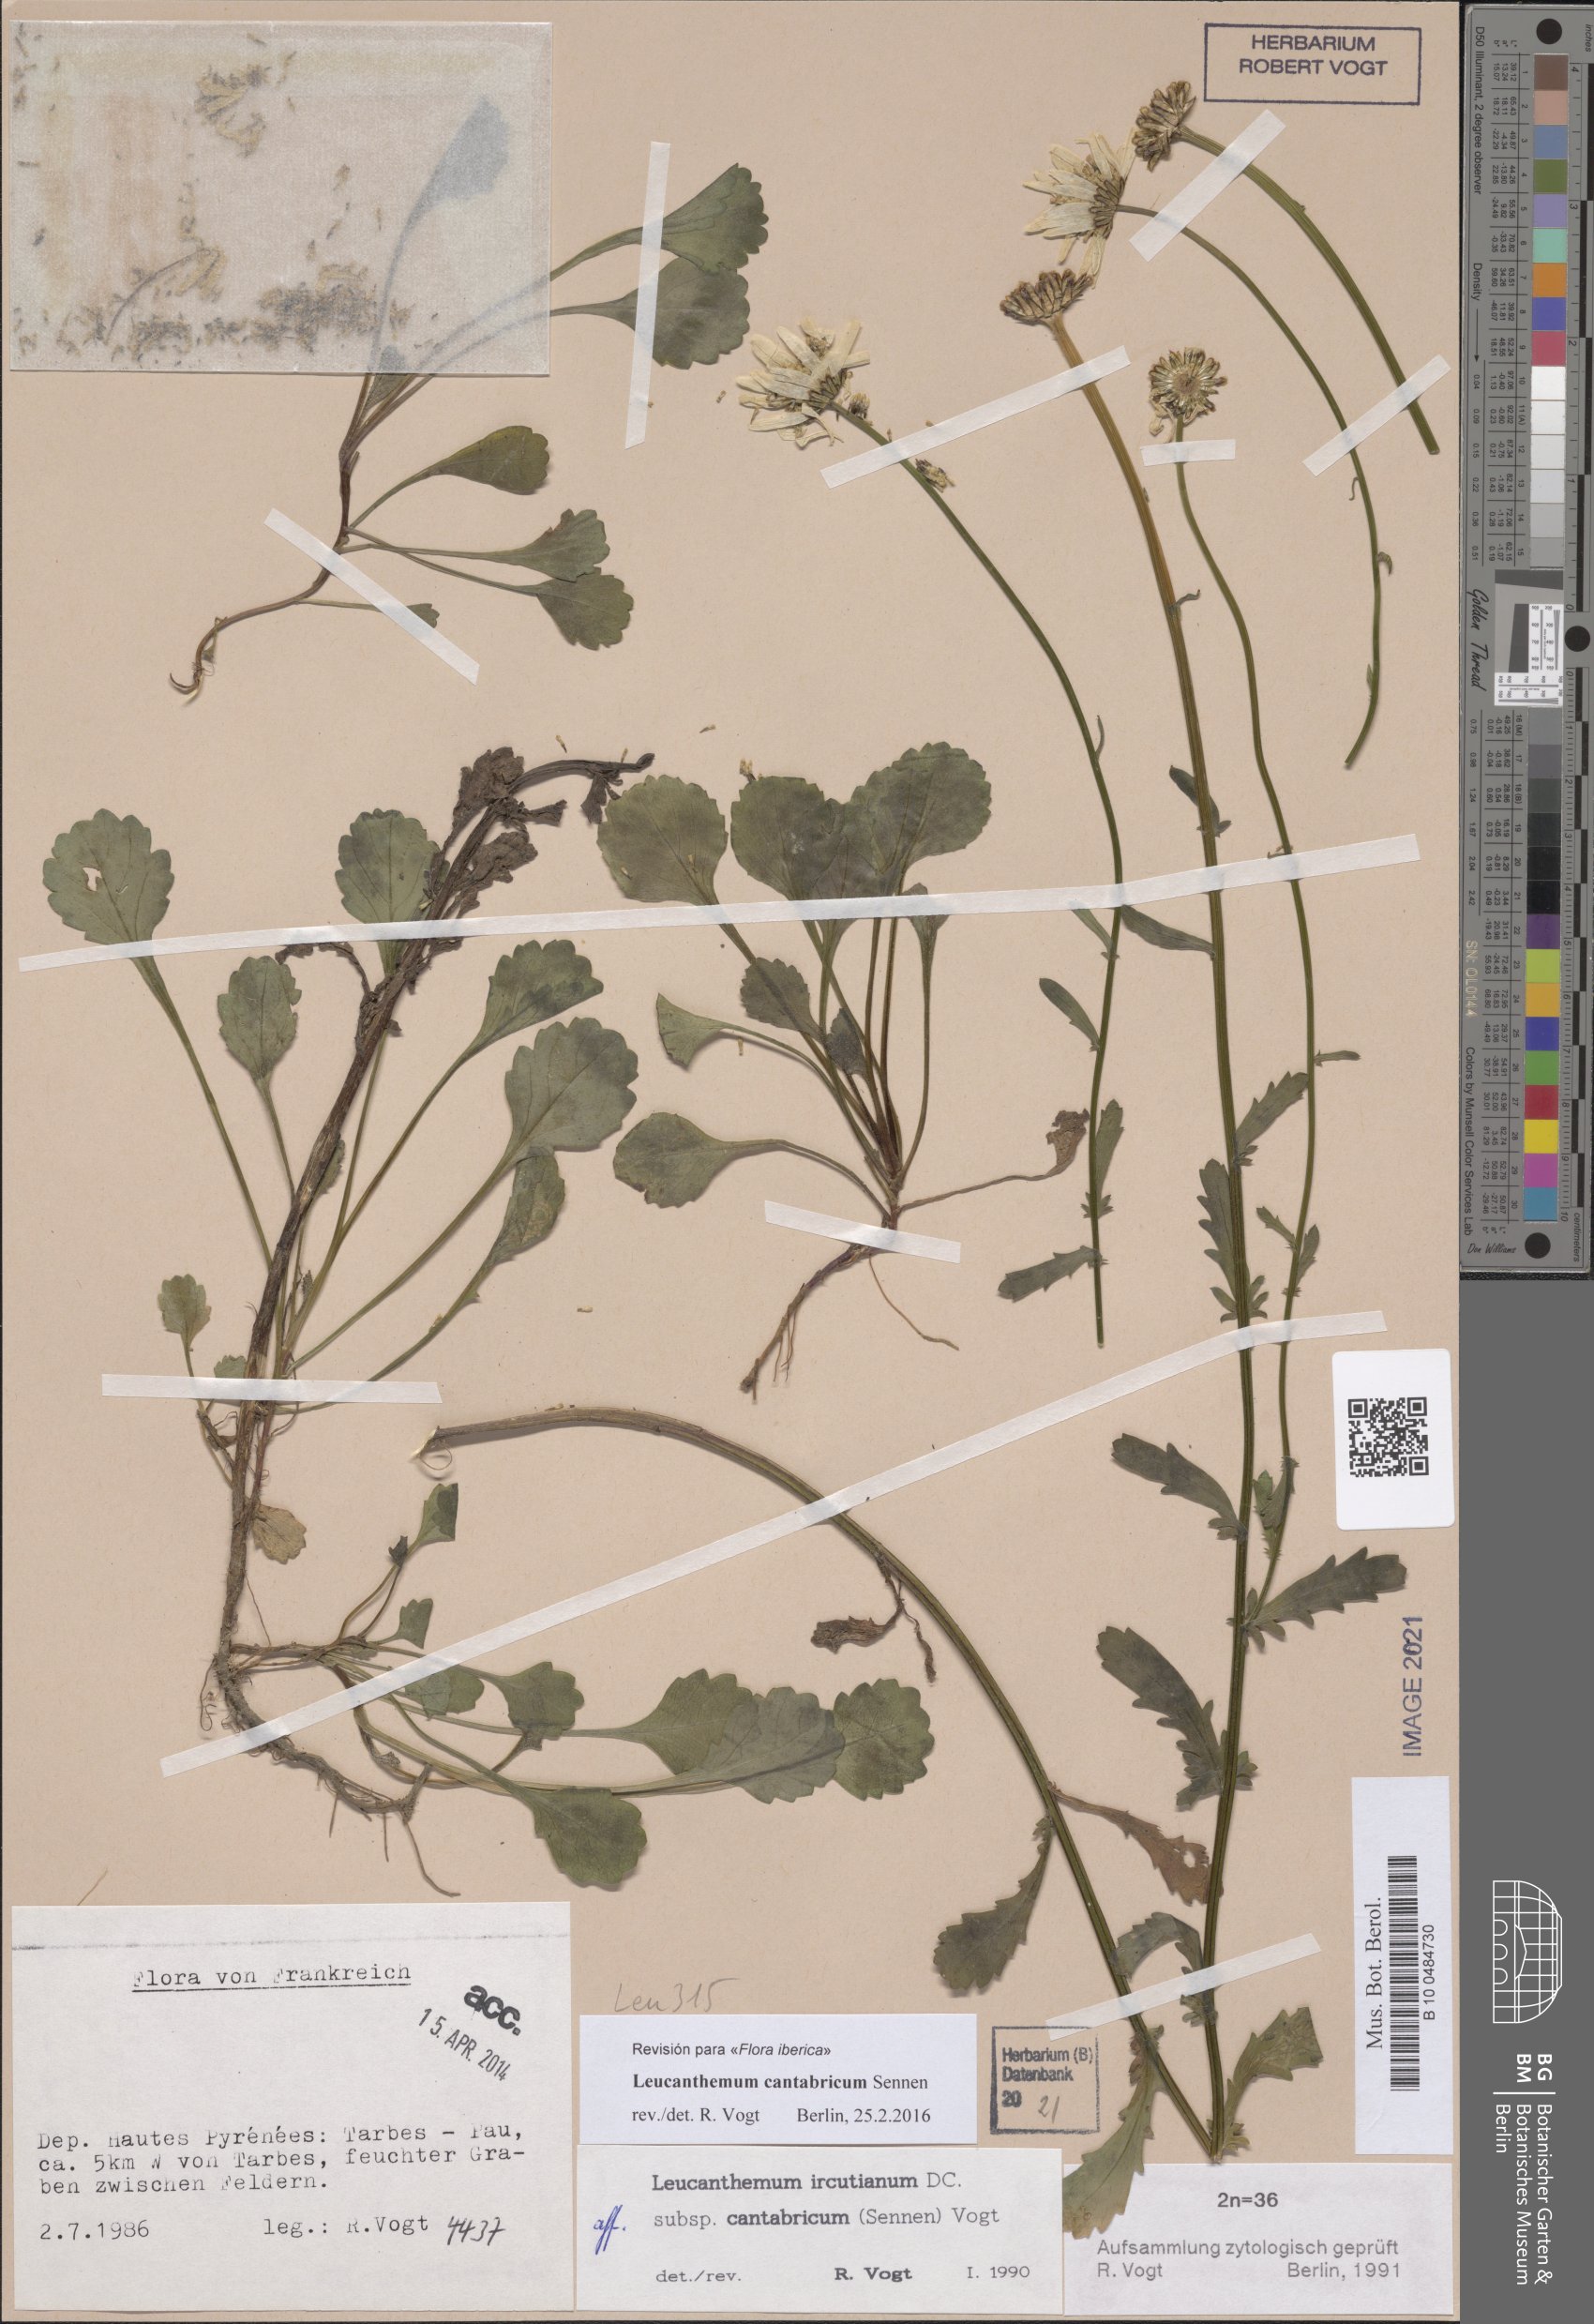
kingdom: Plantae
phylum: Tracheophyta
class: Magnoliopsida
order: Asterales
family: Asteraceae
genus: Leucanthemum
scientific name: Leucanthemum cantabricum
